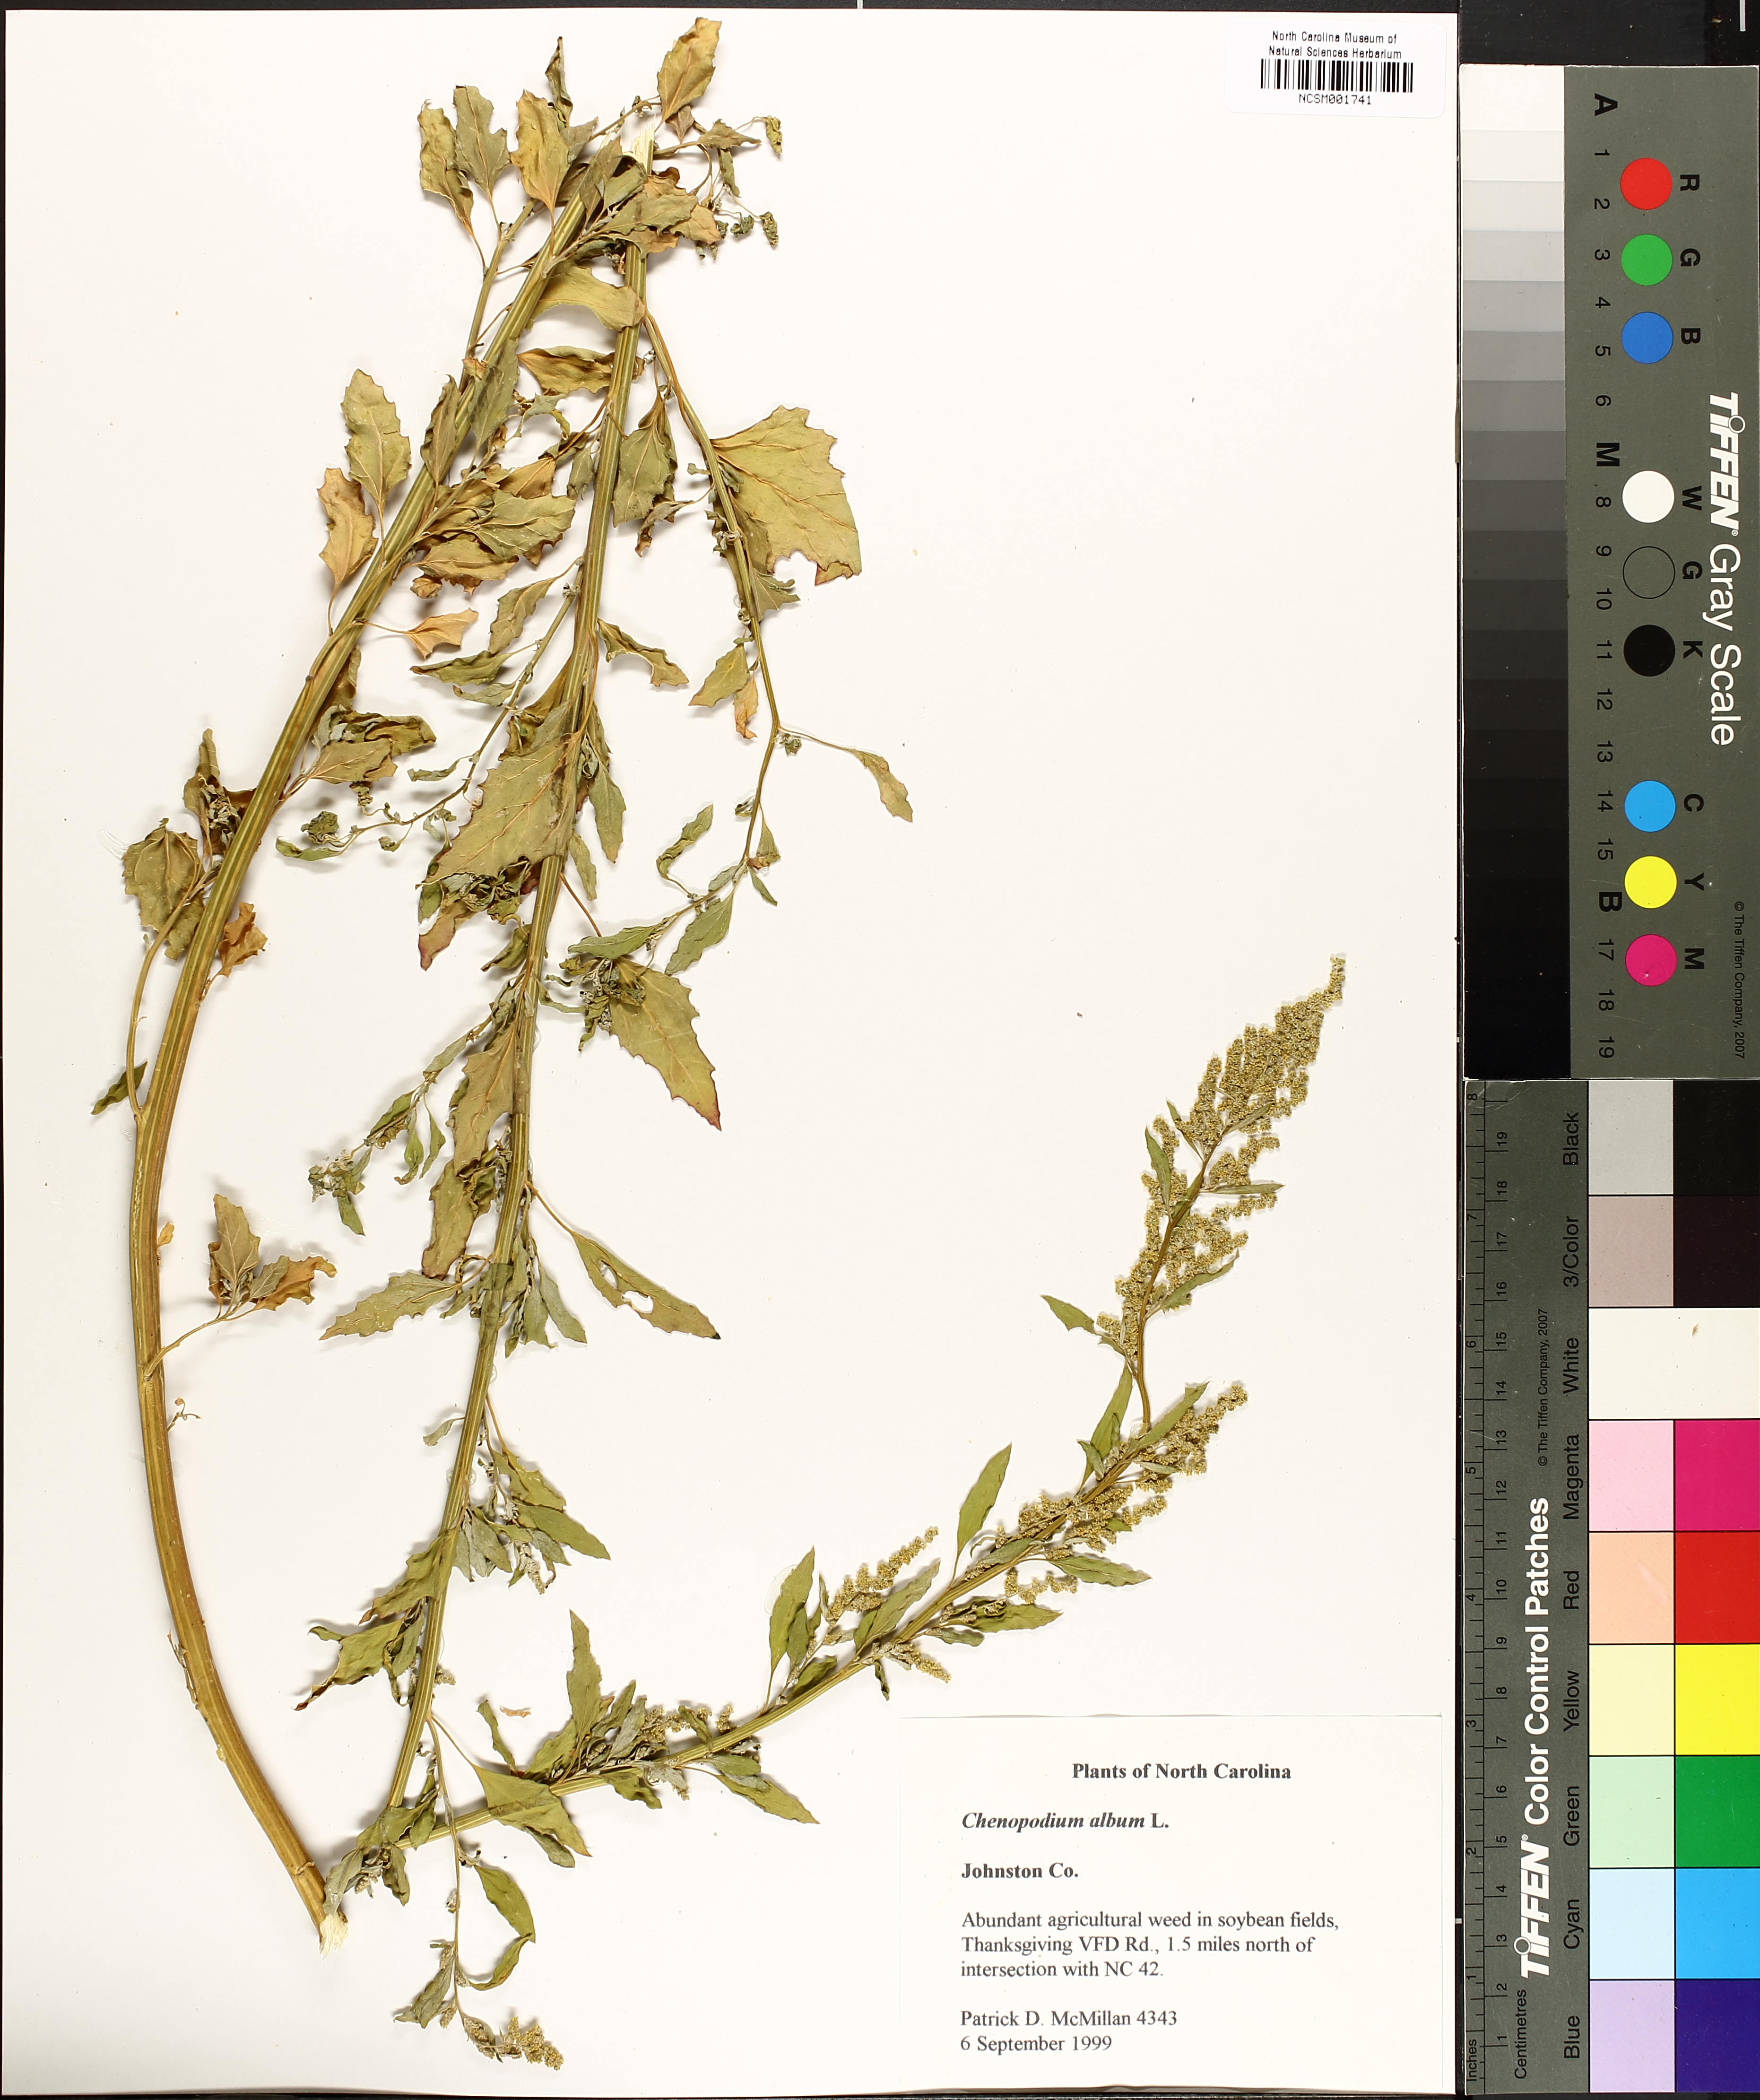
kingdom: Plantae
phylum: Tracheophyta
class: Magnoliopsida
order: Caryophyllales
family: Amaranthaceae
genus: Chenopodium
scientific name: Chenopodium album
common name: Fat-hen
